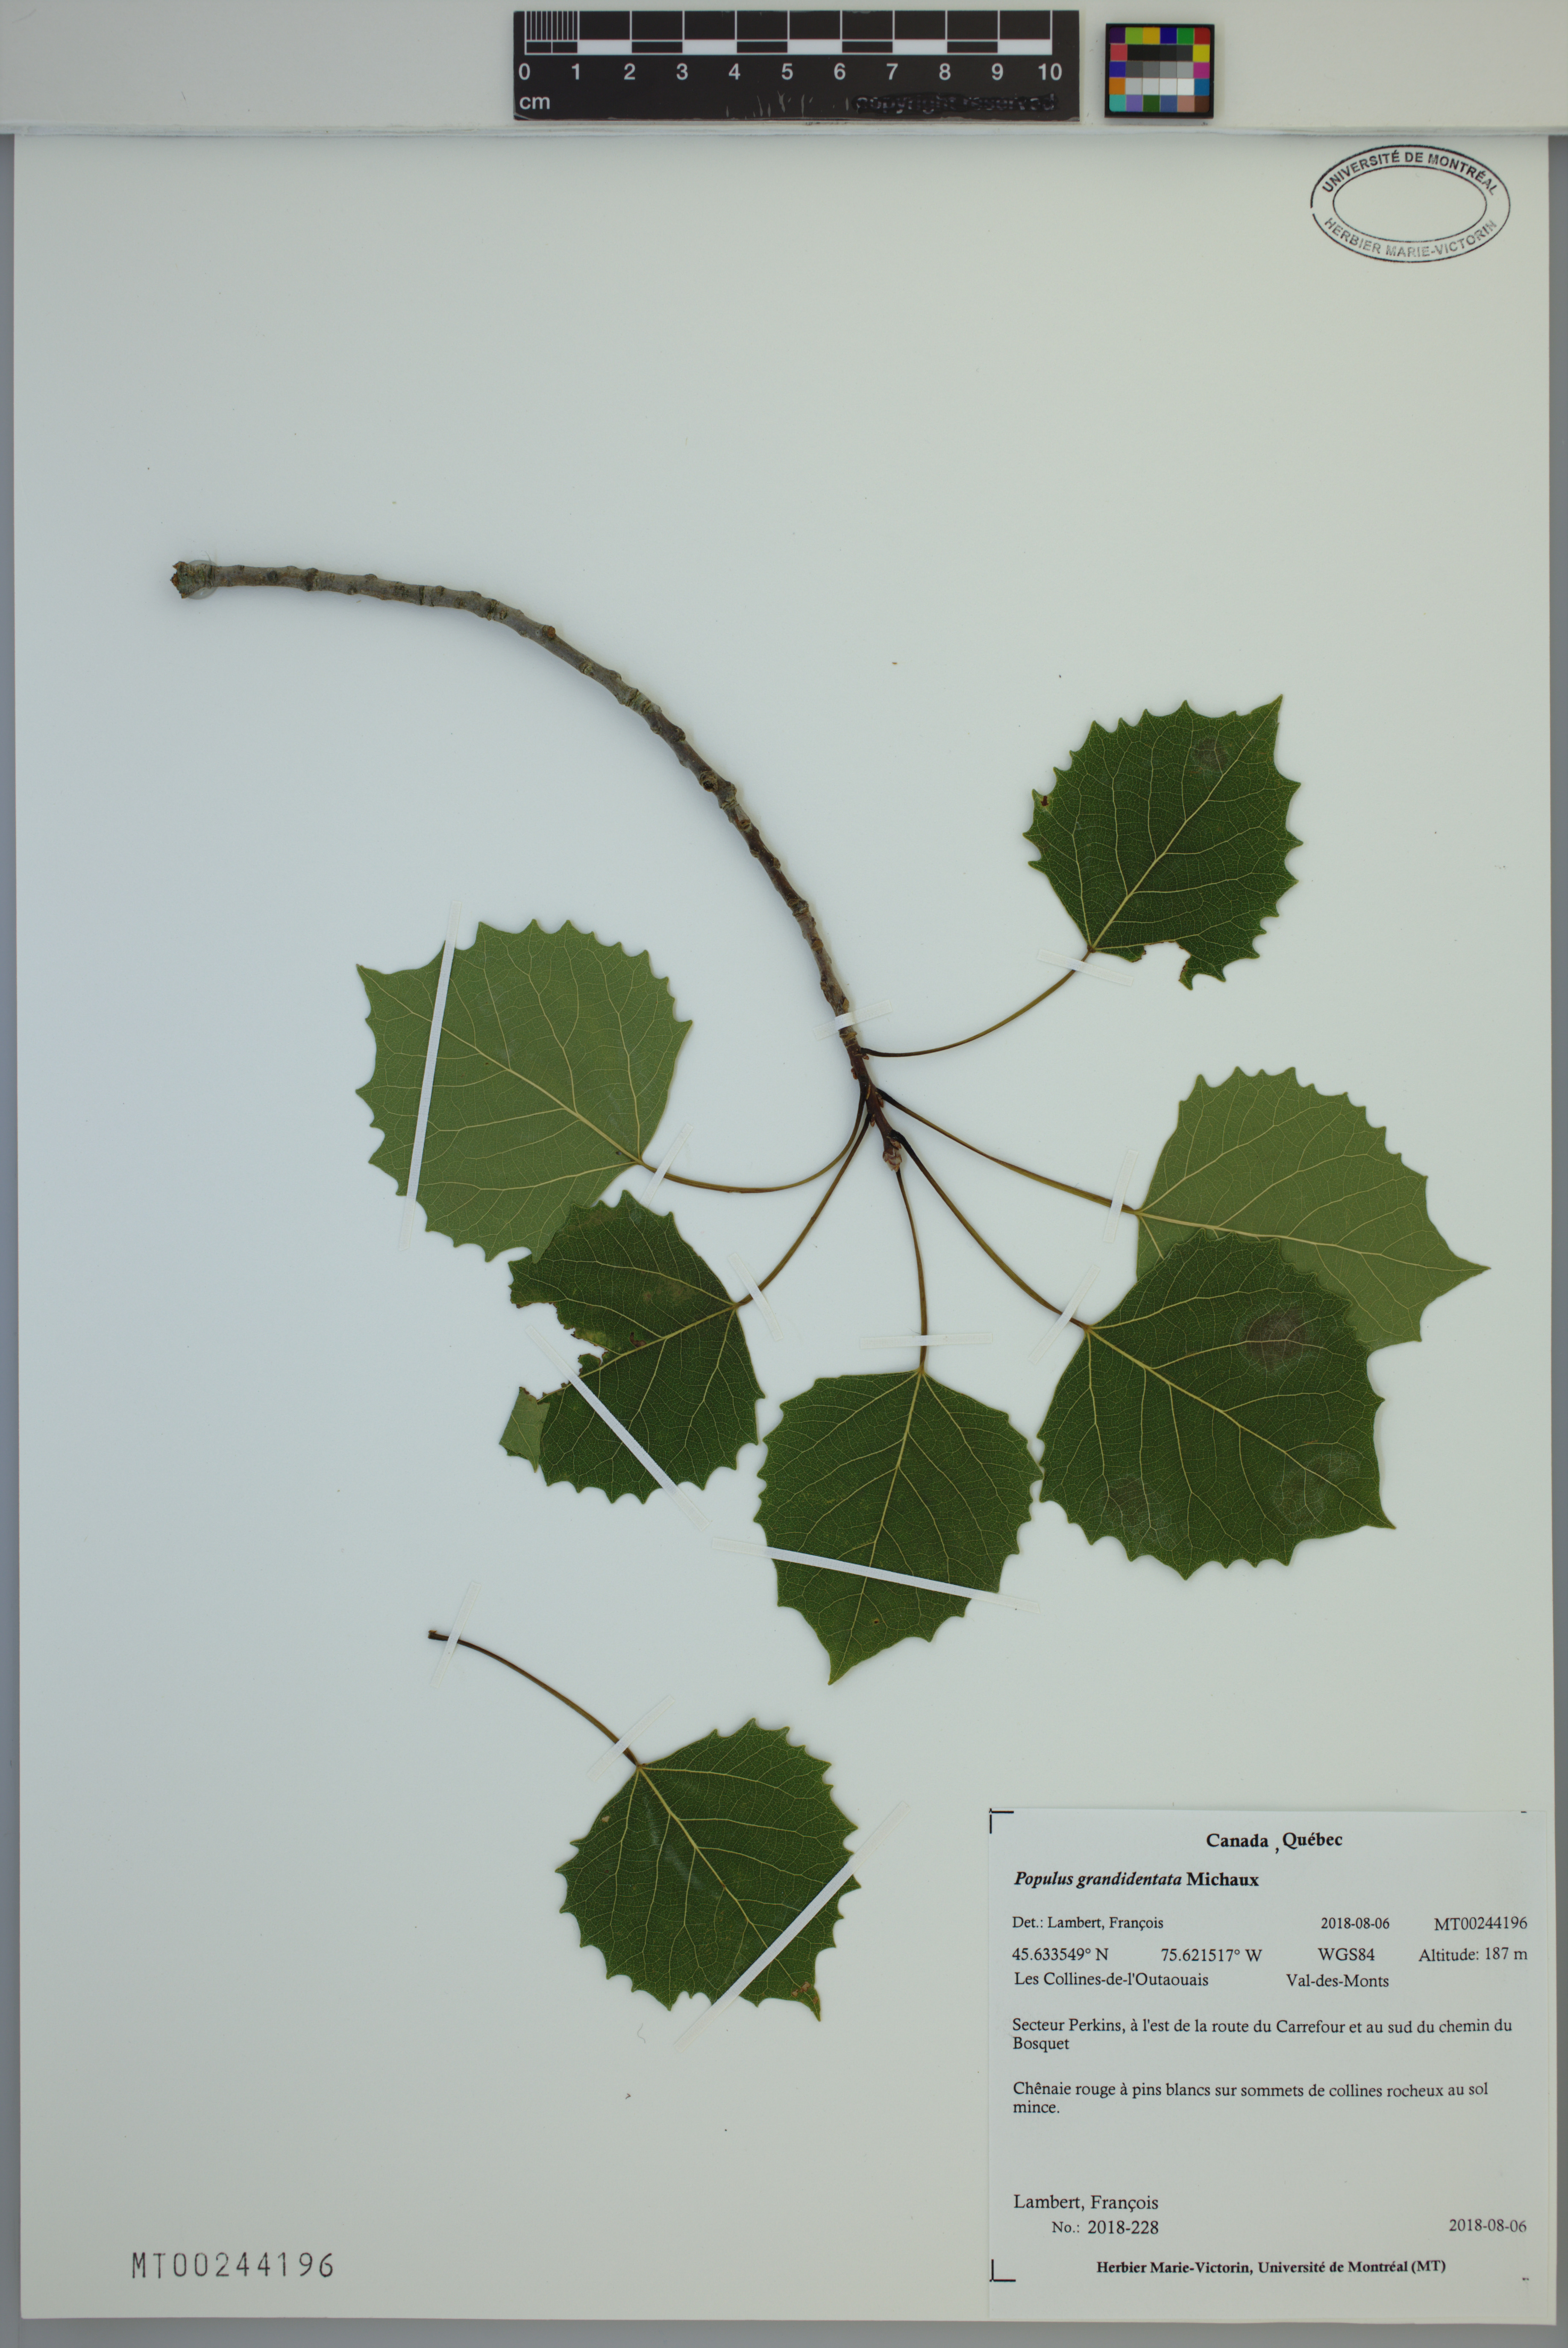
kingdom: Plantae
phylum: Tracheophyta
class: Magnoliopsida
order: Malpighiales
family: Salicaceae
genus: Populus
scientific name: Populus grandidentata
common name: Bigtooth aspen
